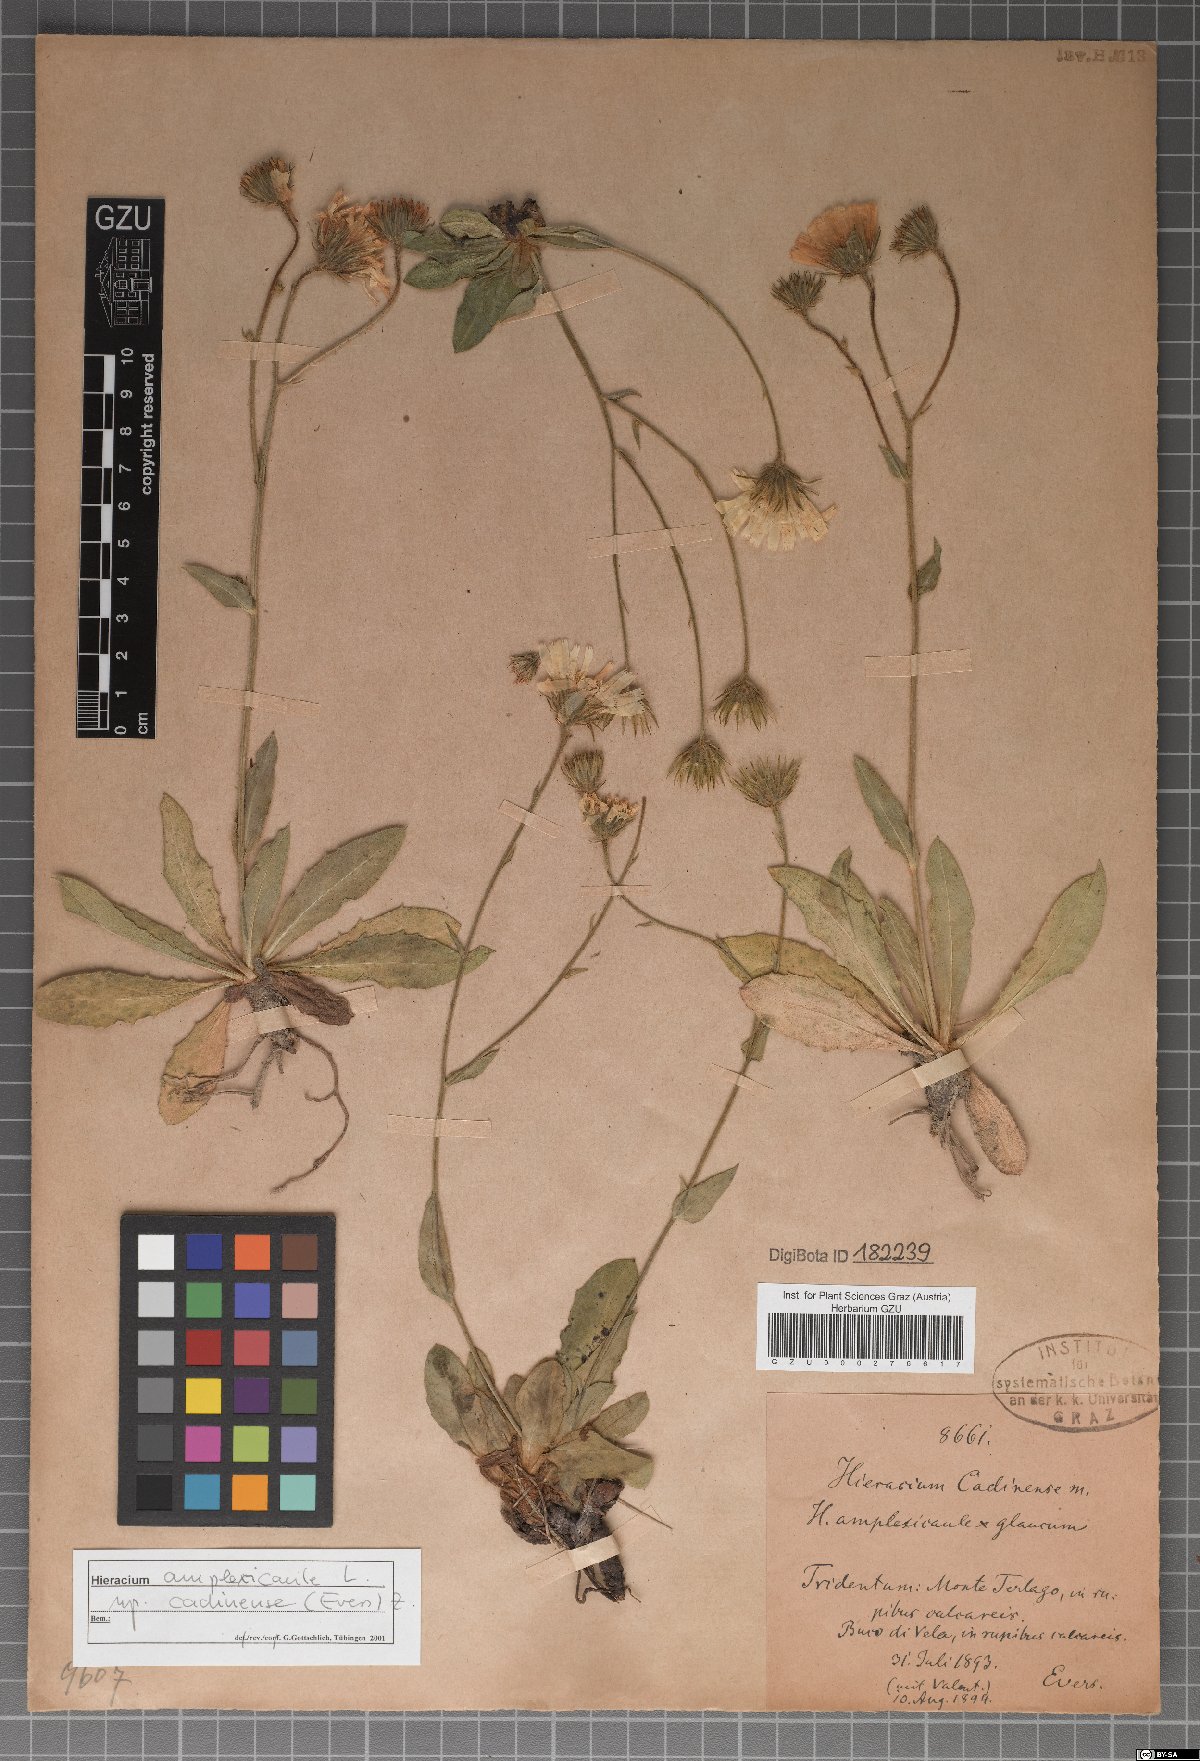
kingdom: Plantae
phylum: Tracheophyta
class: Magnoliopsida
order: Asterales
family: Asteraceae
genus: Hieracium
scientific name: Hieracium amplexicaule
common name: Sticky hawkweed
